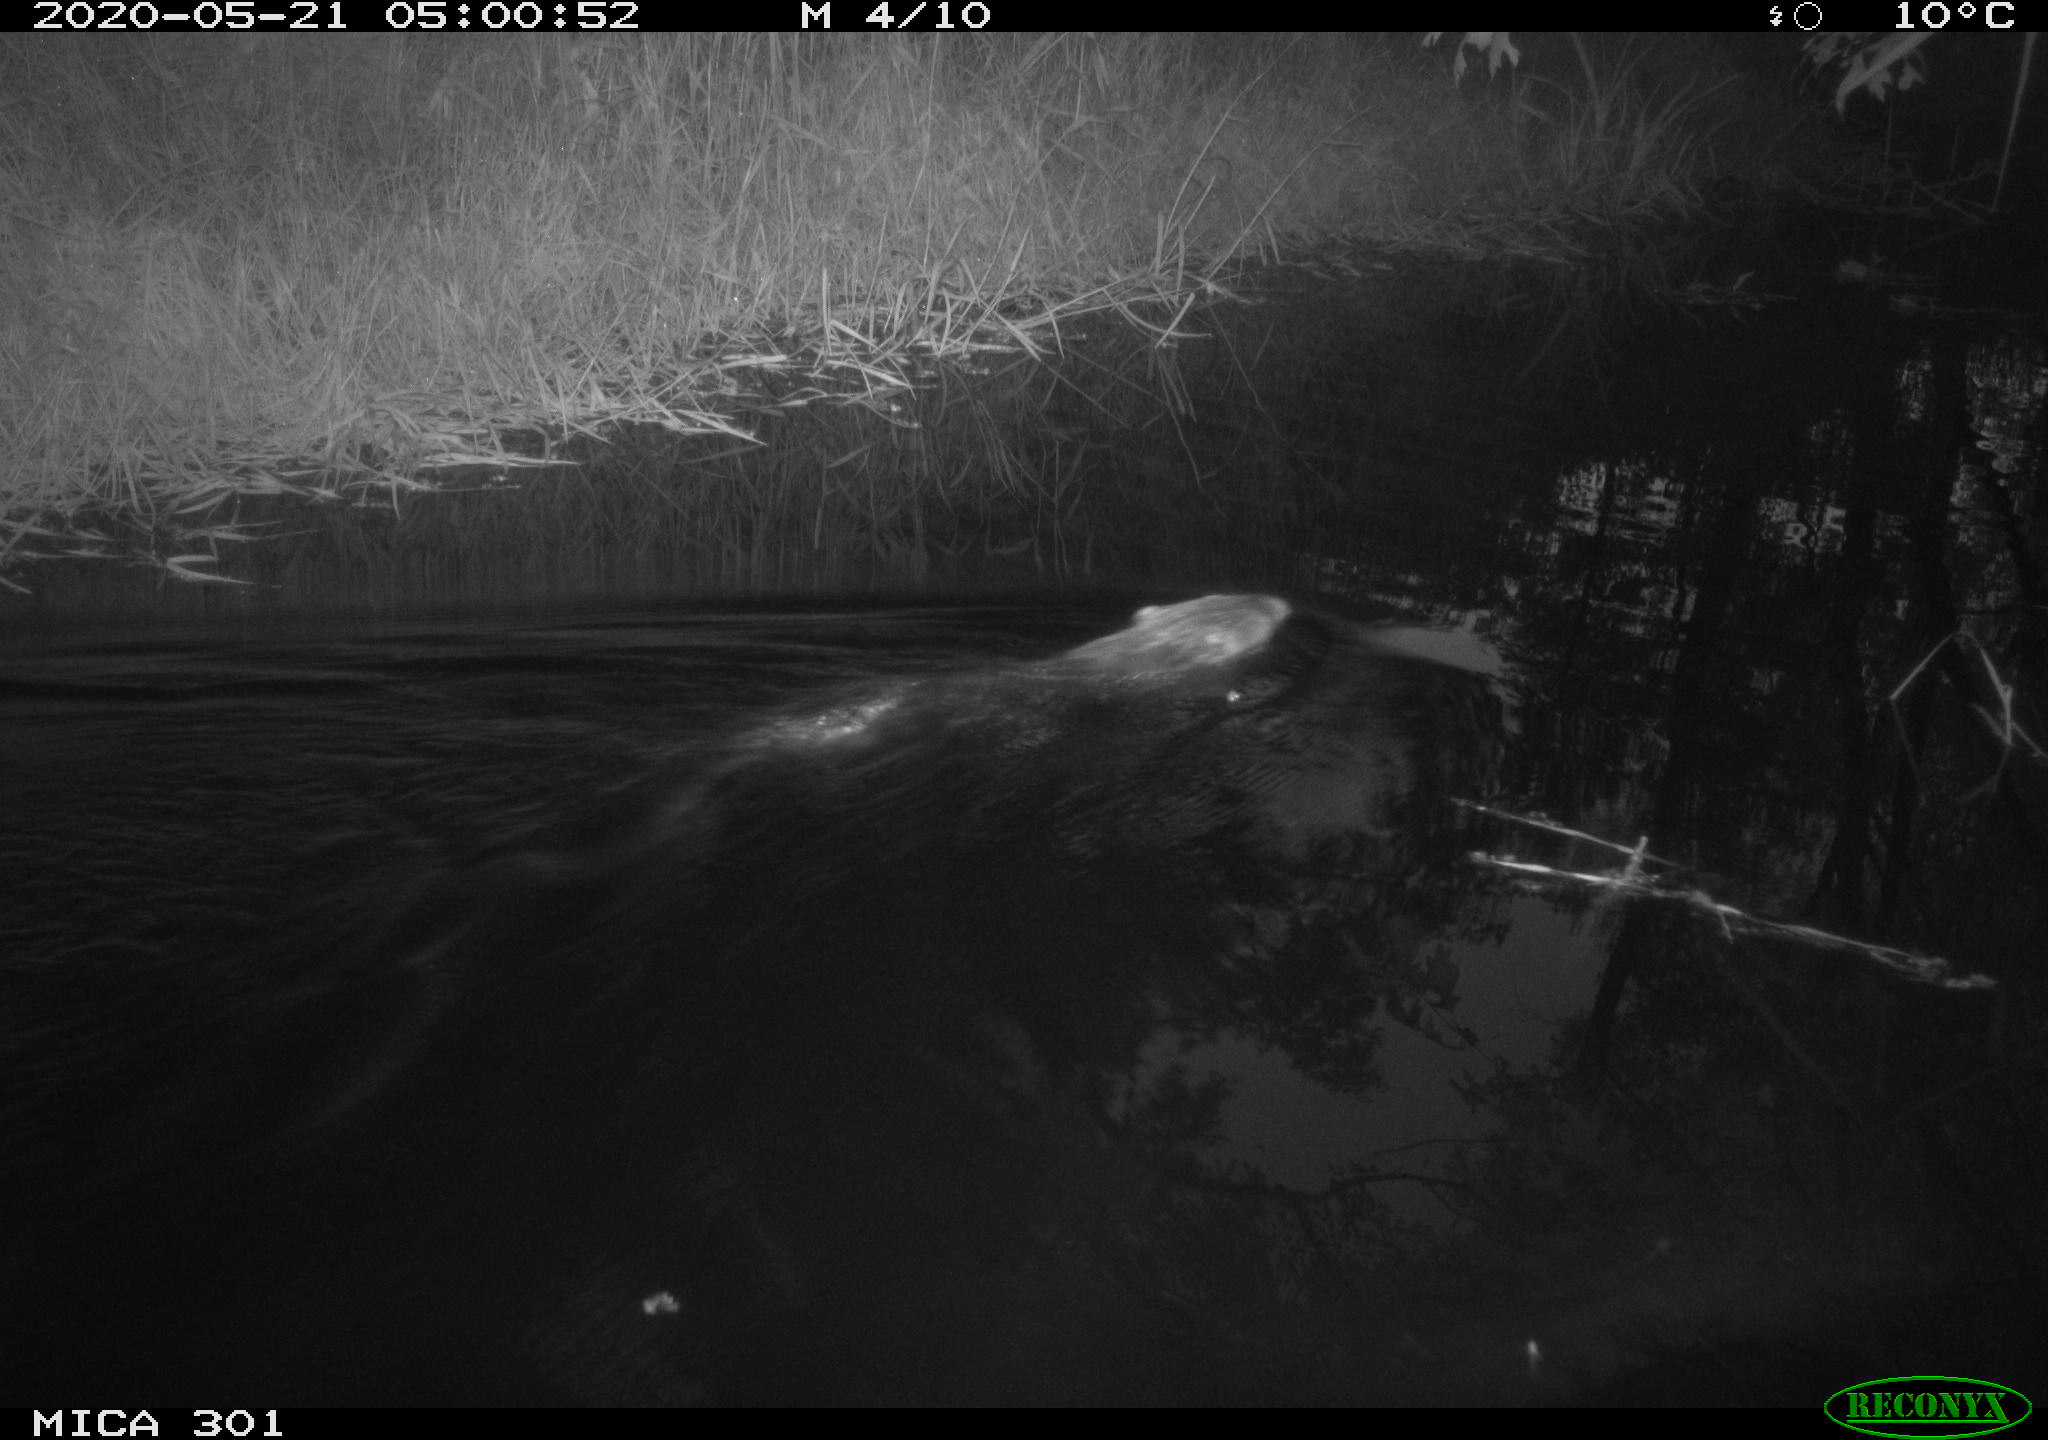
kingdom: Animalia
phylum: Chordata
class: Mammalia
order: Rodentia
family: Castoridae
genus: Castor
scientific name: Castor fiber
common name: Eurasian beaver
